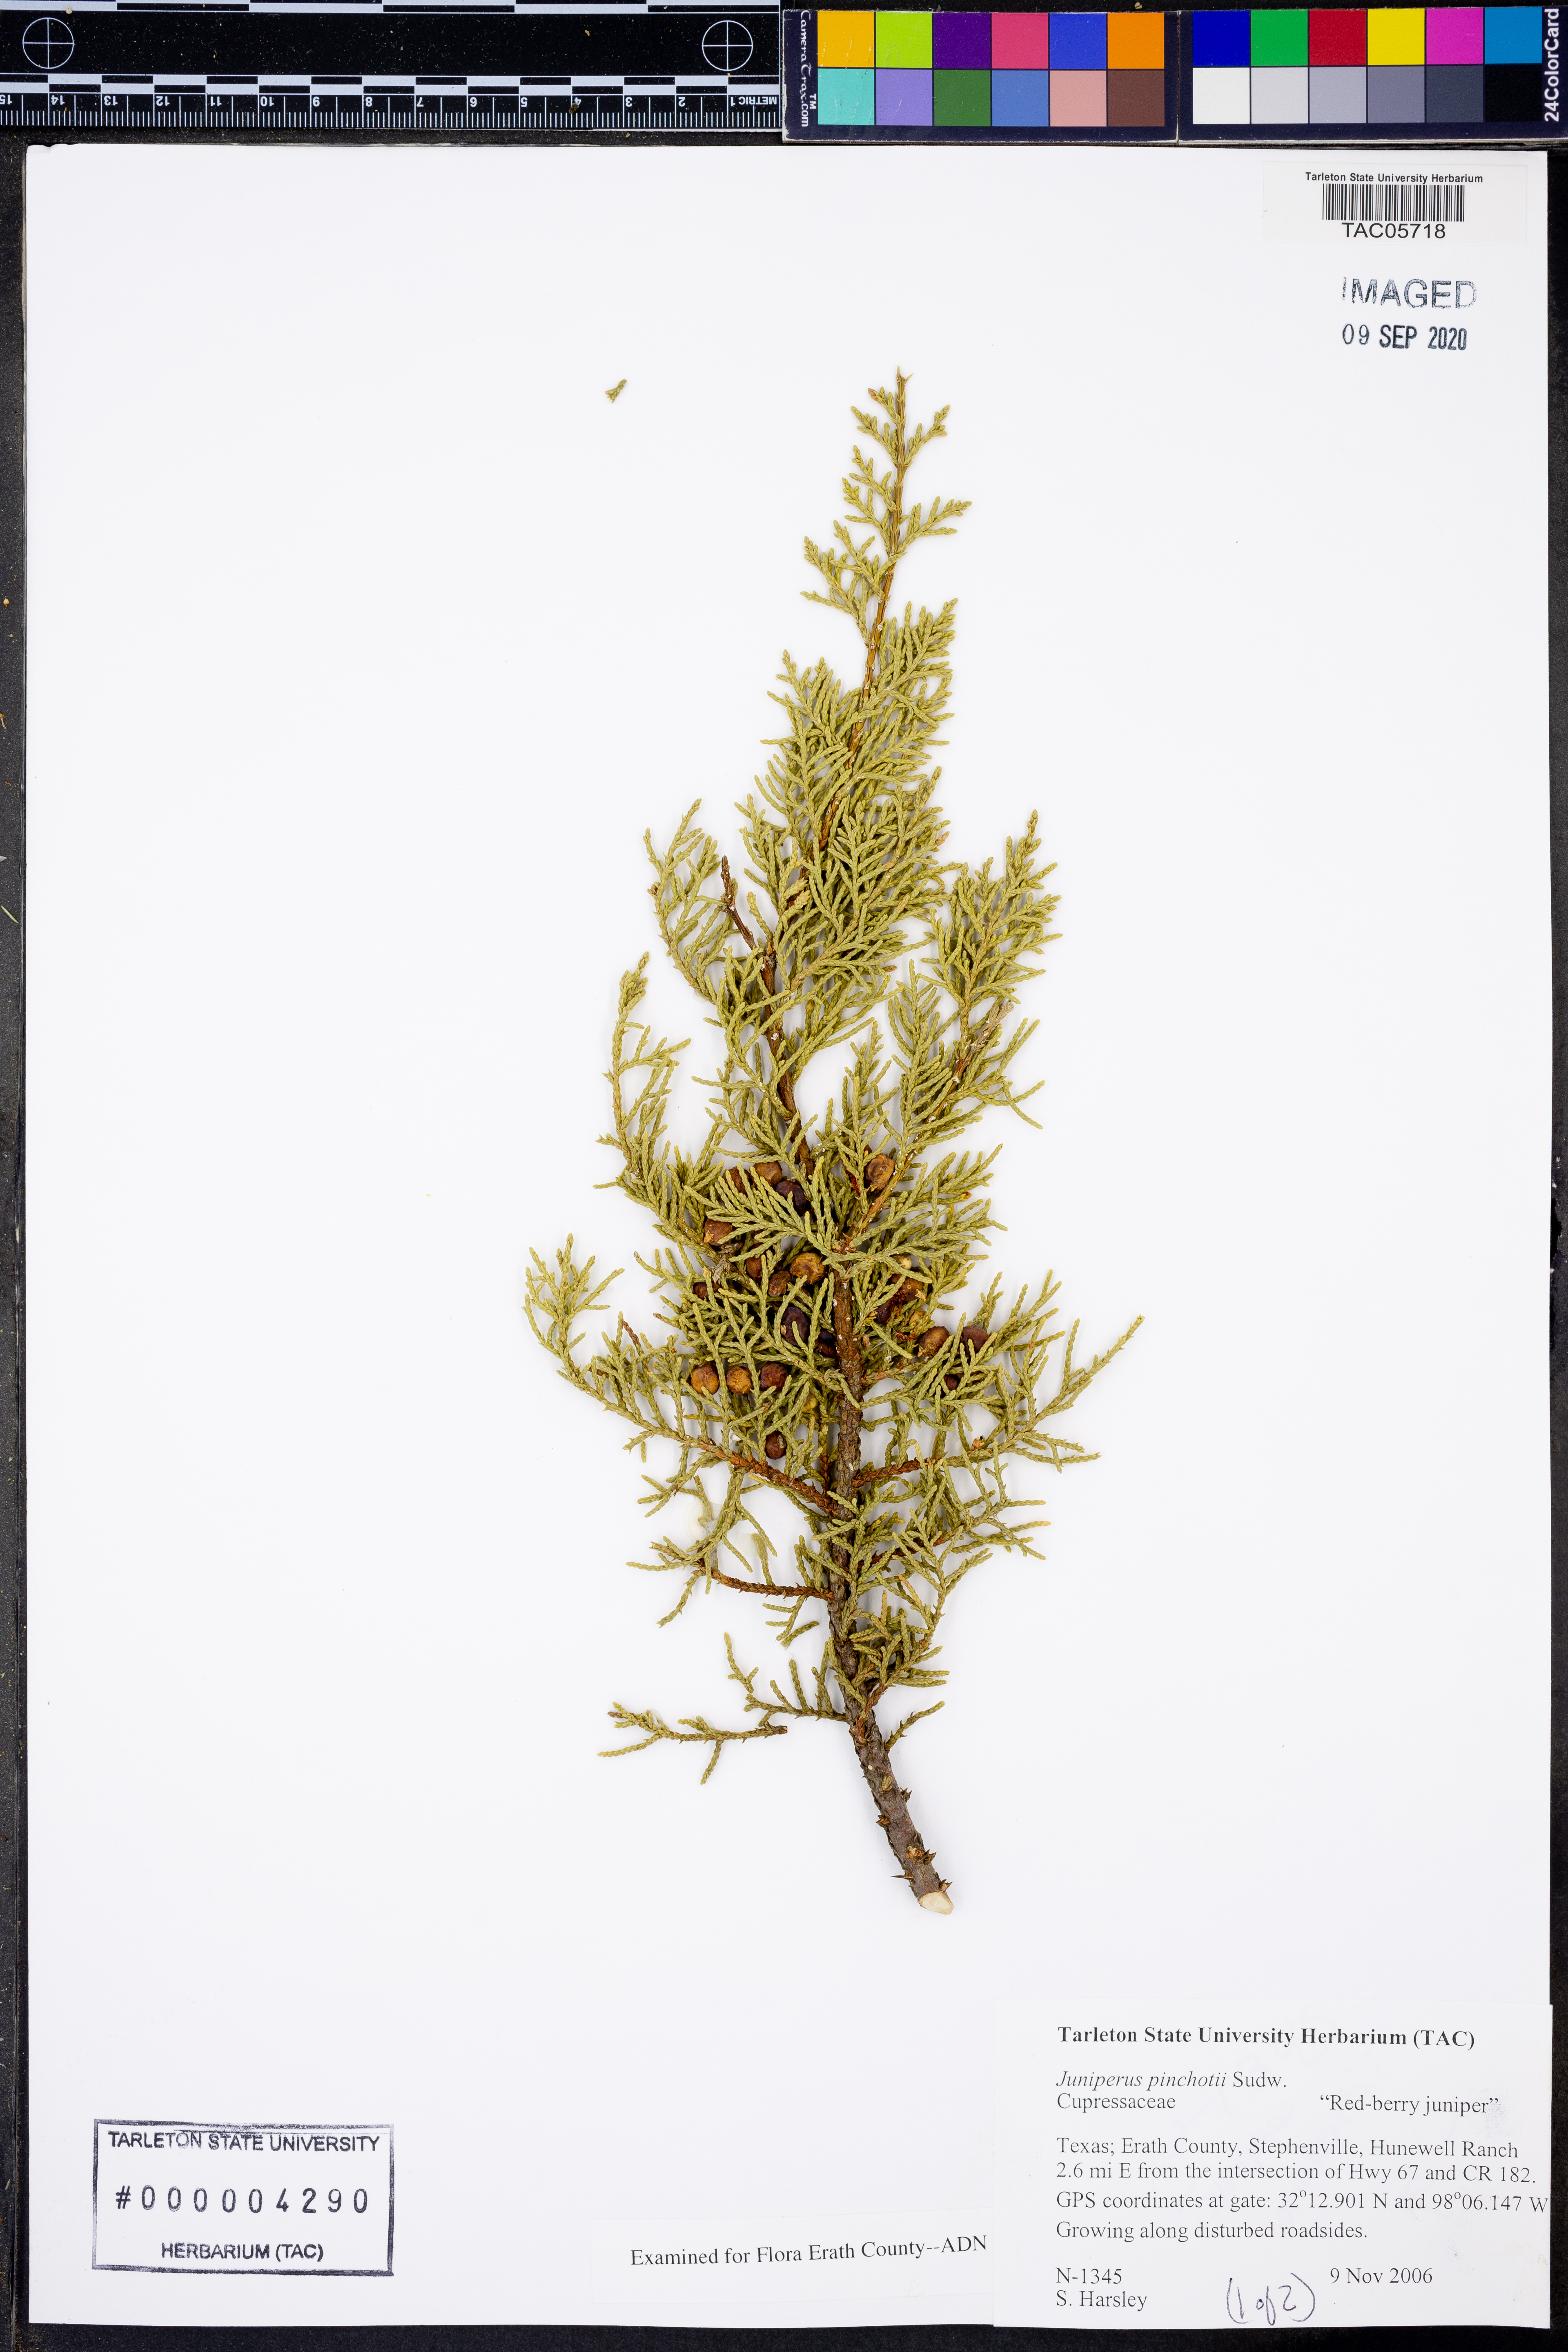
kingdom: Plantae
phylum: Tracheophyta
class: Pinopsida
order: Pinales
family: Cupressaceae
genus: Juniperus
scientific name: Juniperus pinchotii
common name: Pinchot juniper
